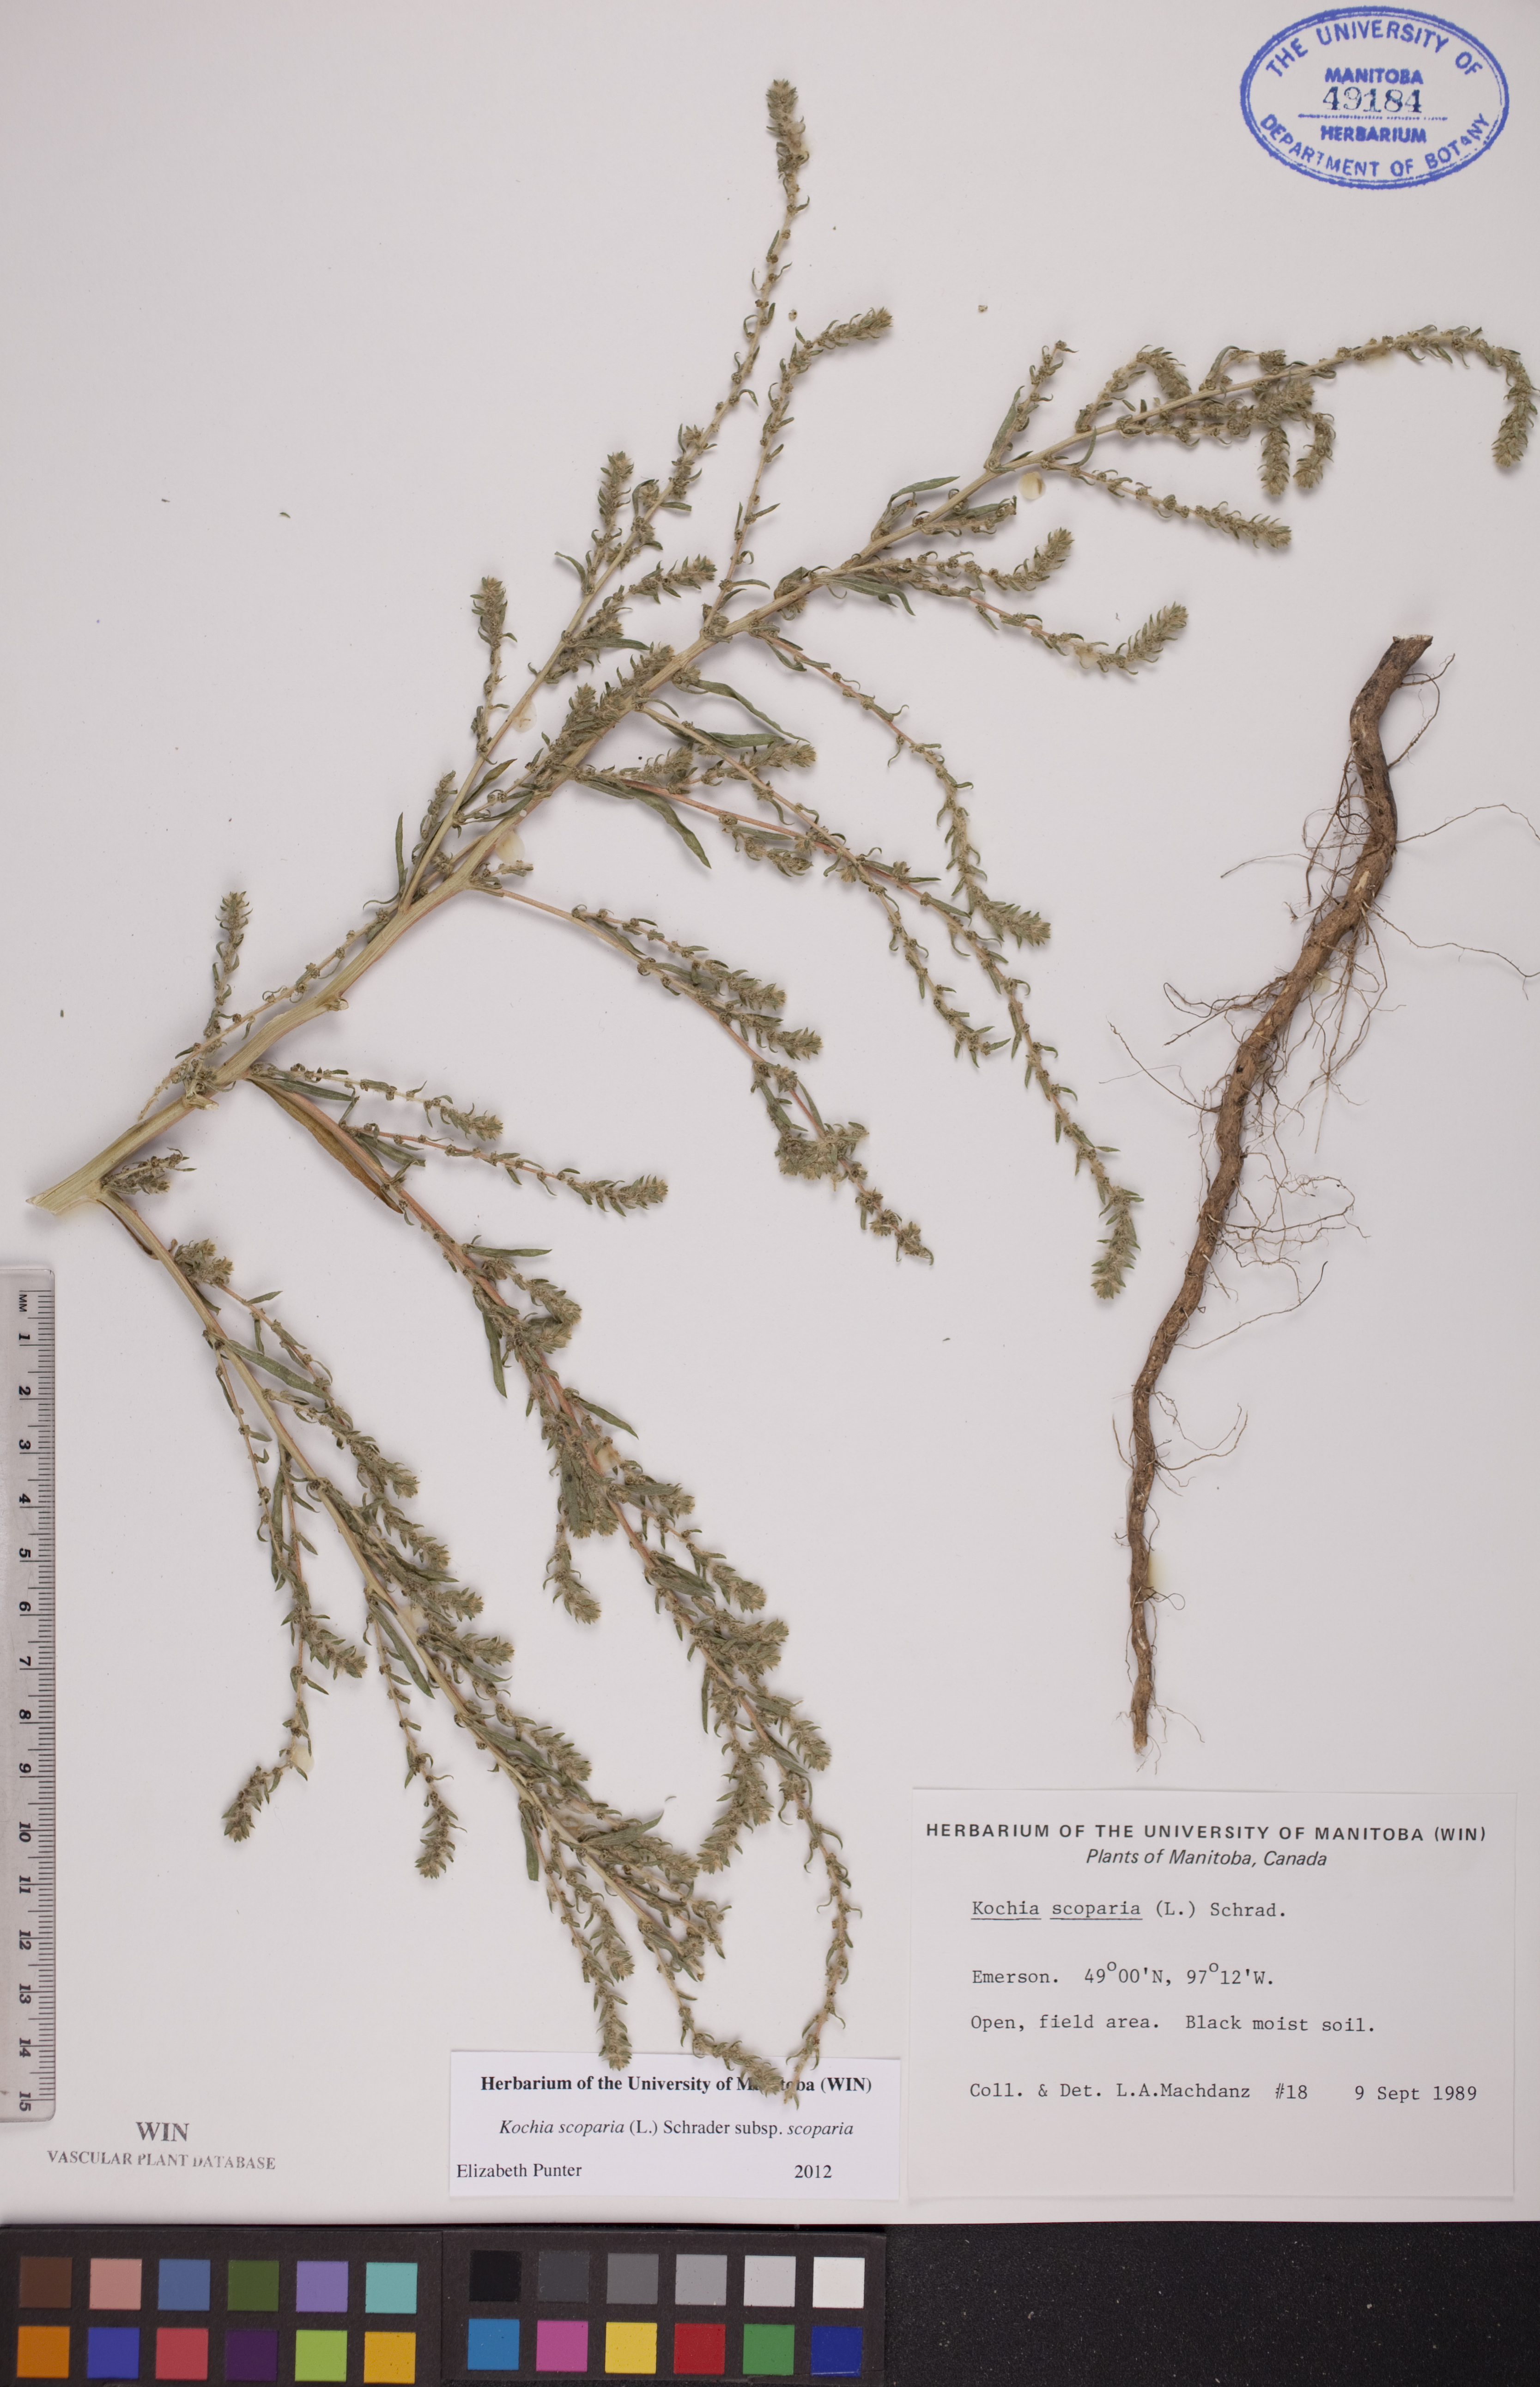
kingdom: Plantae
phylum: Tracheophyta
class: Magnoliopsida
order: Caryophyllales
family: Amaranthaceae
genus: Bassia
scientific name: Bassia scoparia
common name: Belvedere
